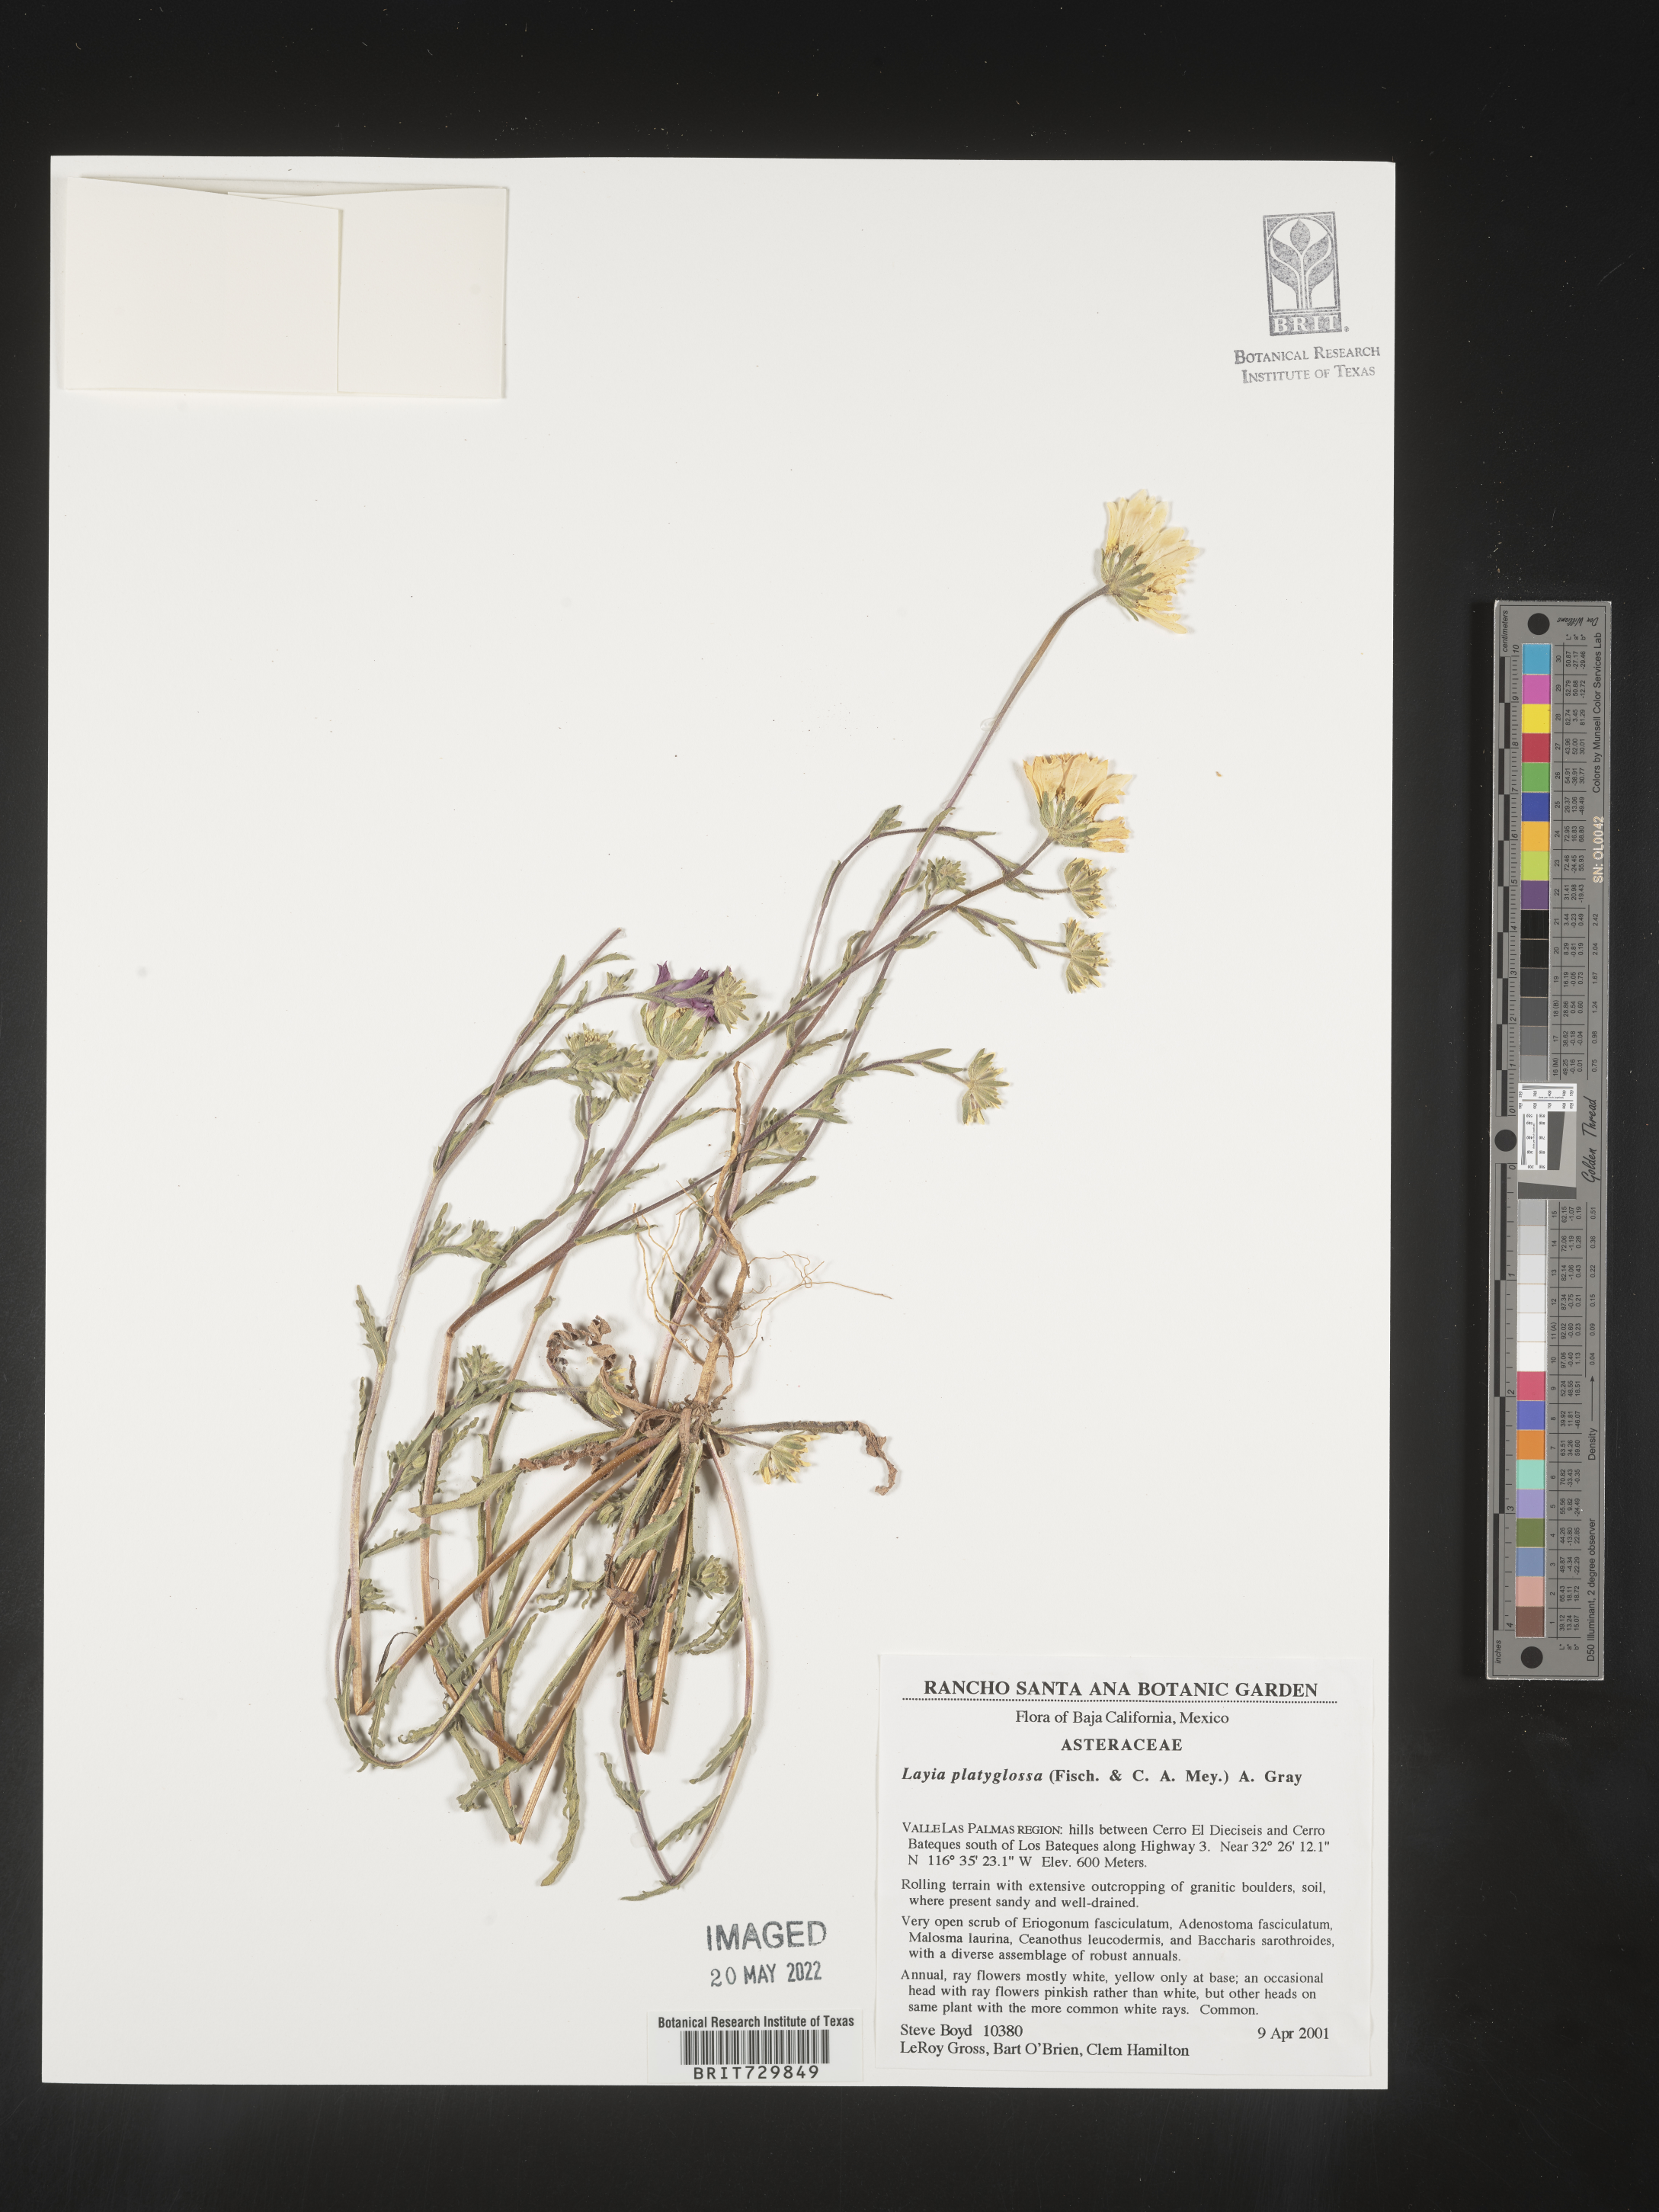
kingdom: Plantae
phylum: Tracheophyta
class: Magnoliopsida
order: Asterales
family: Asteraceae
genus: Layia
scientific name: Layia
